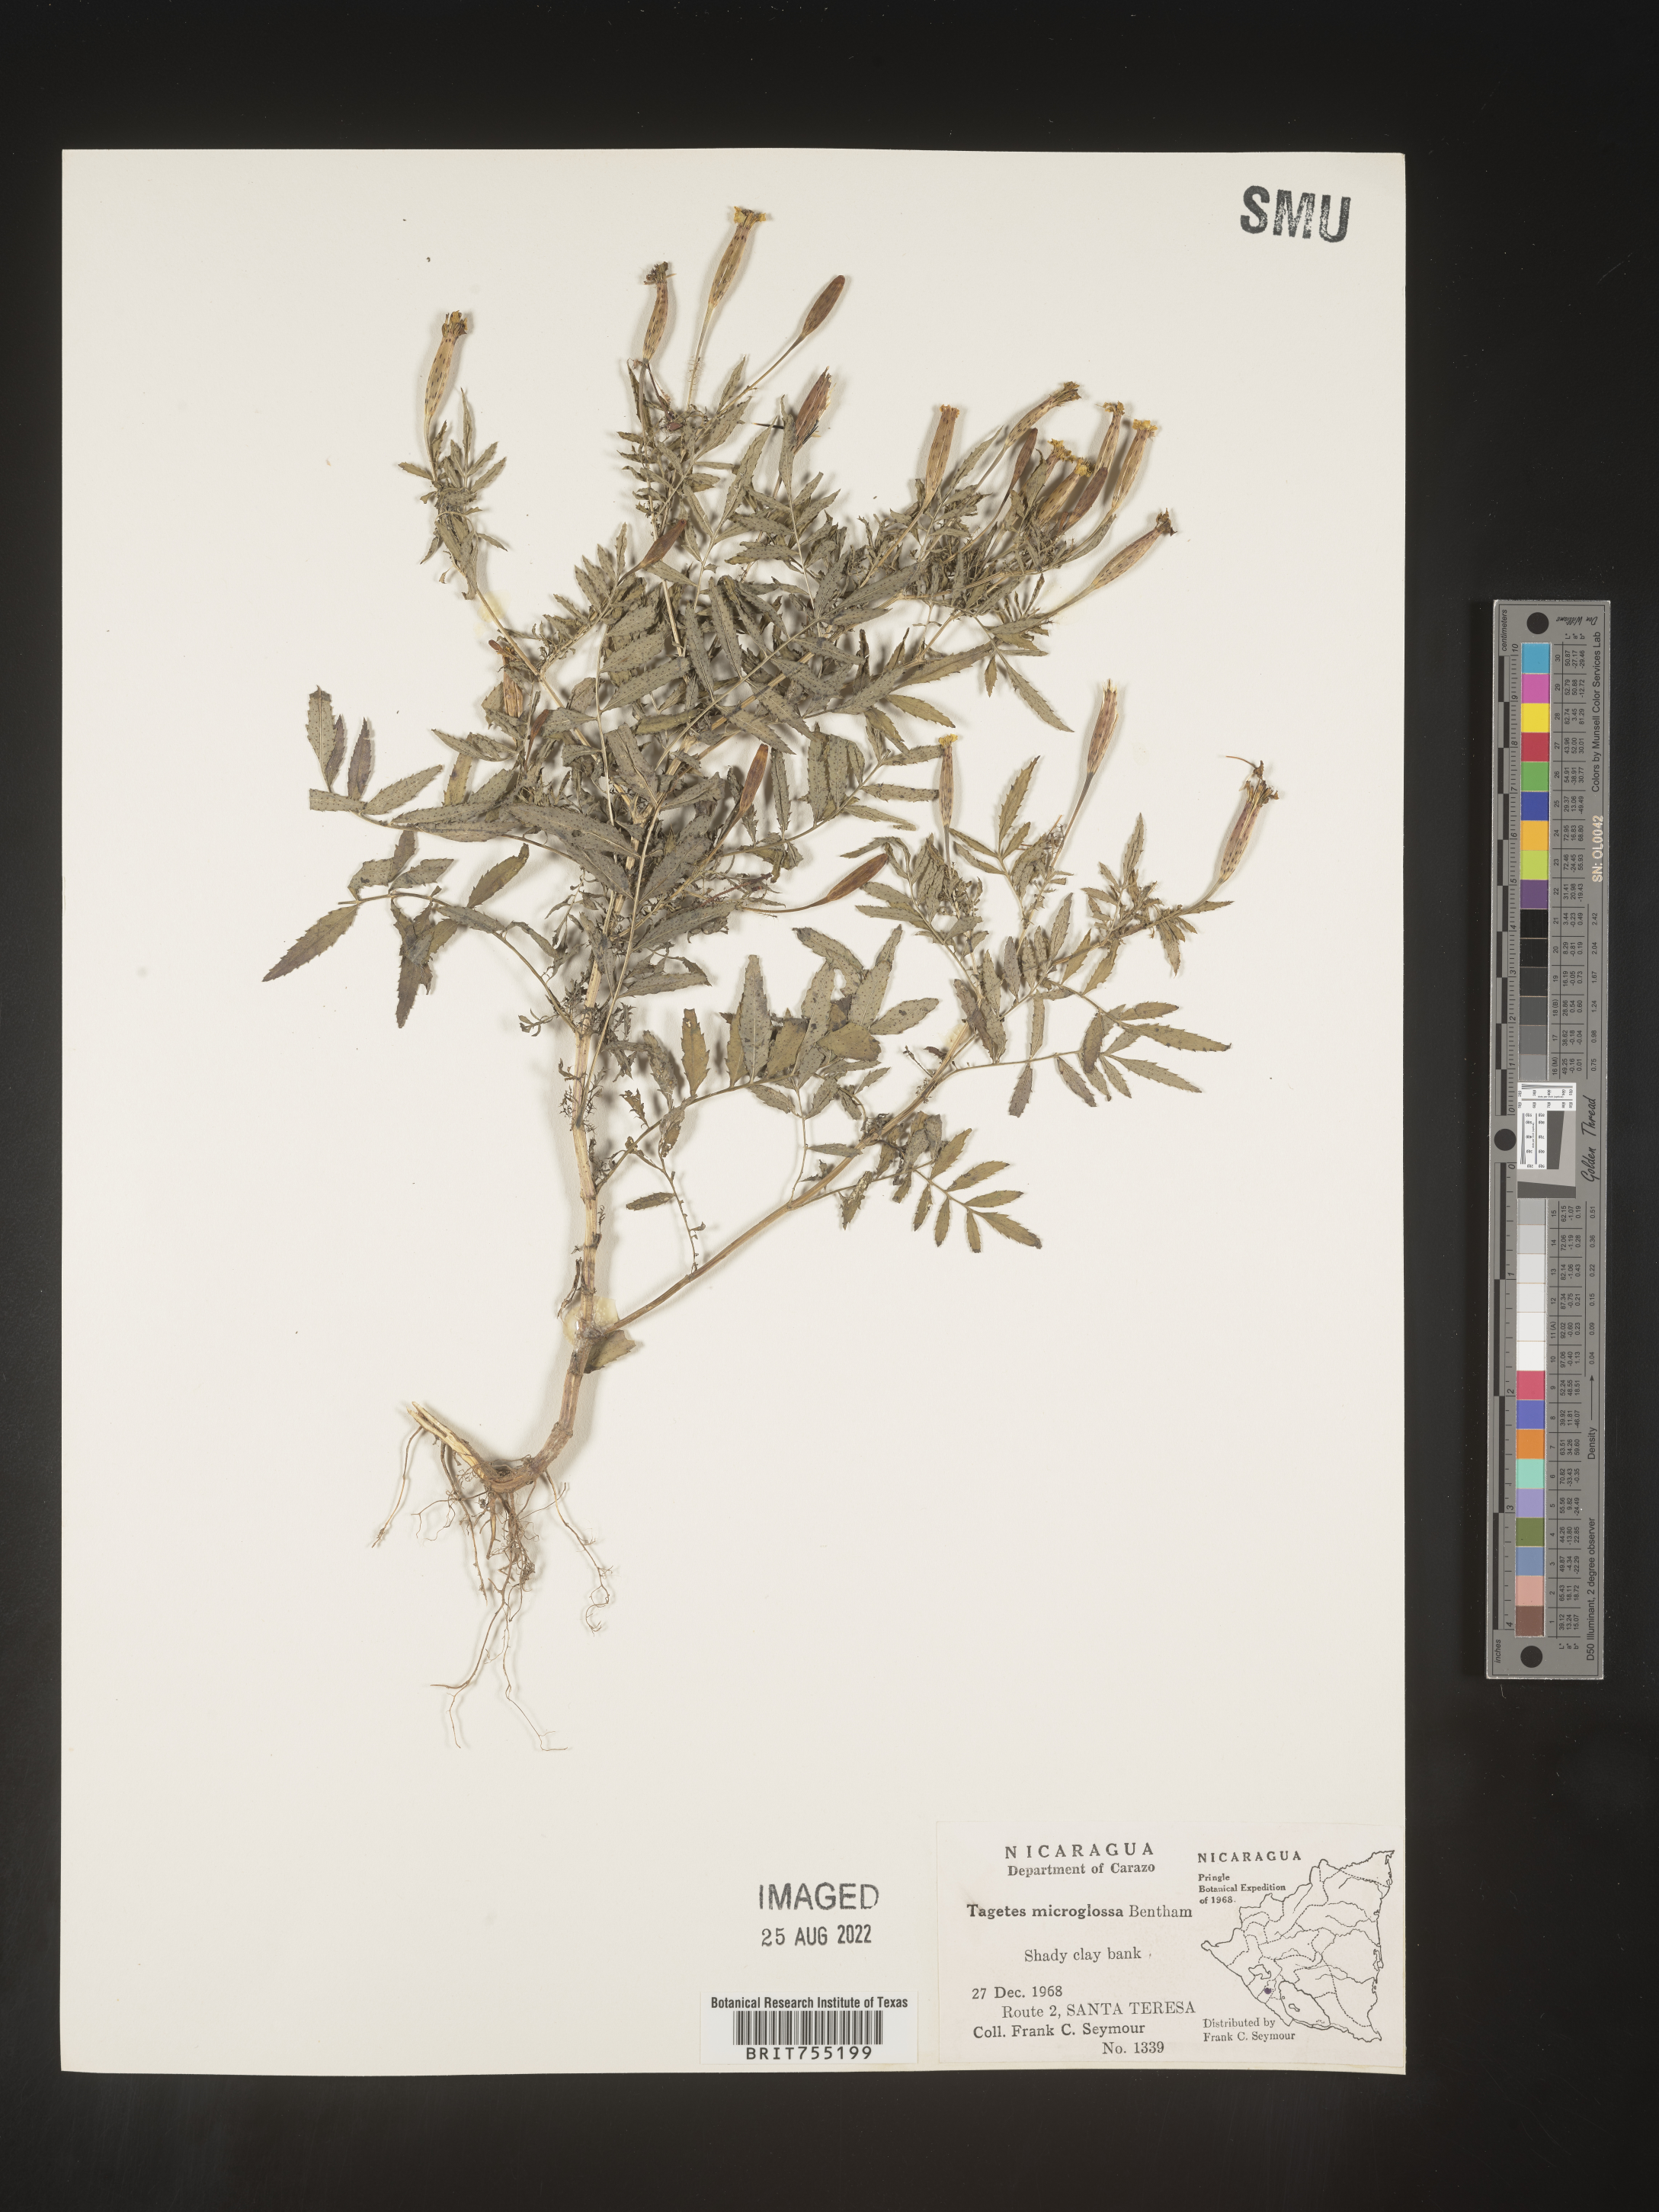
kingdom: Plantae
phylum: Tracheophyta
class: Magnoliopsida
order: Asterales
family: Asteraceae
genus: Tagetes
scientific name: Tagetes
